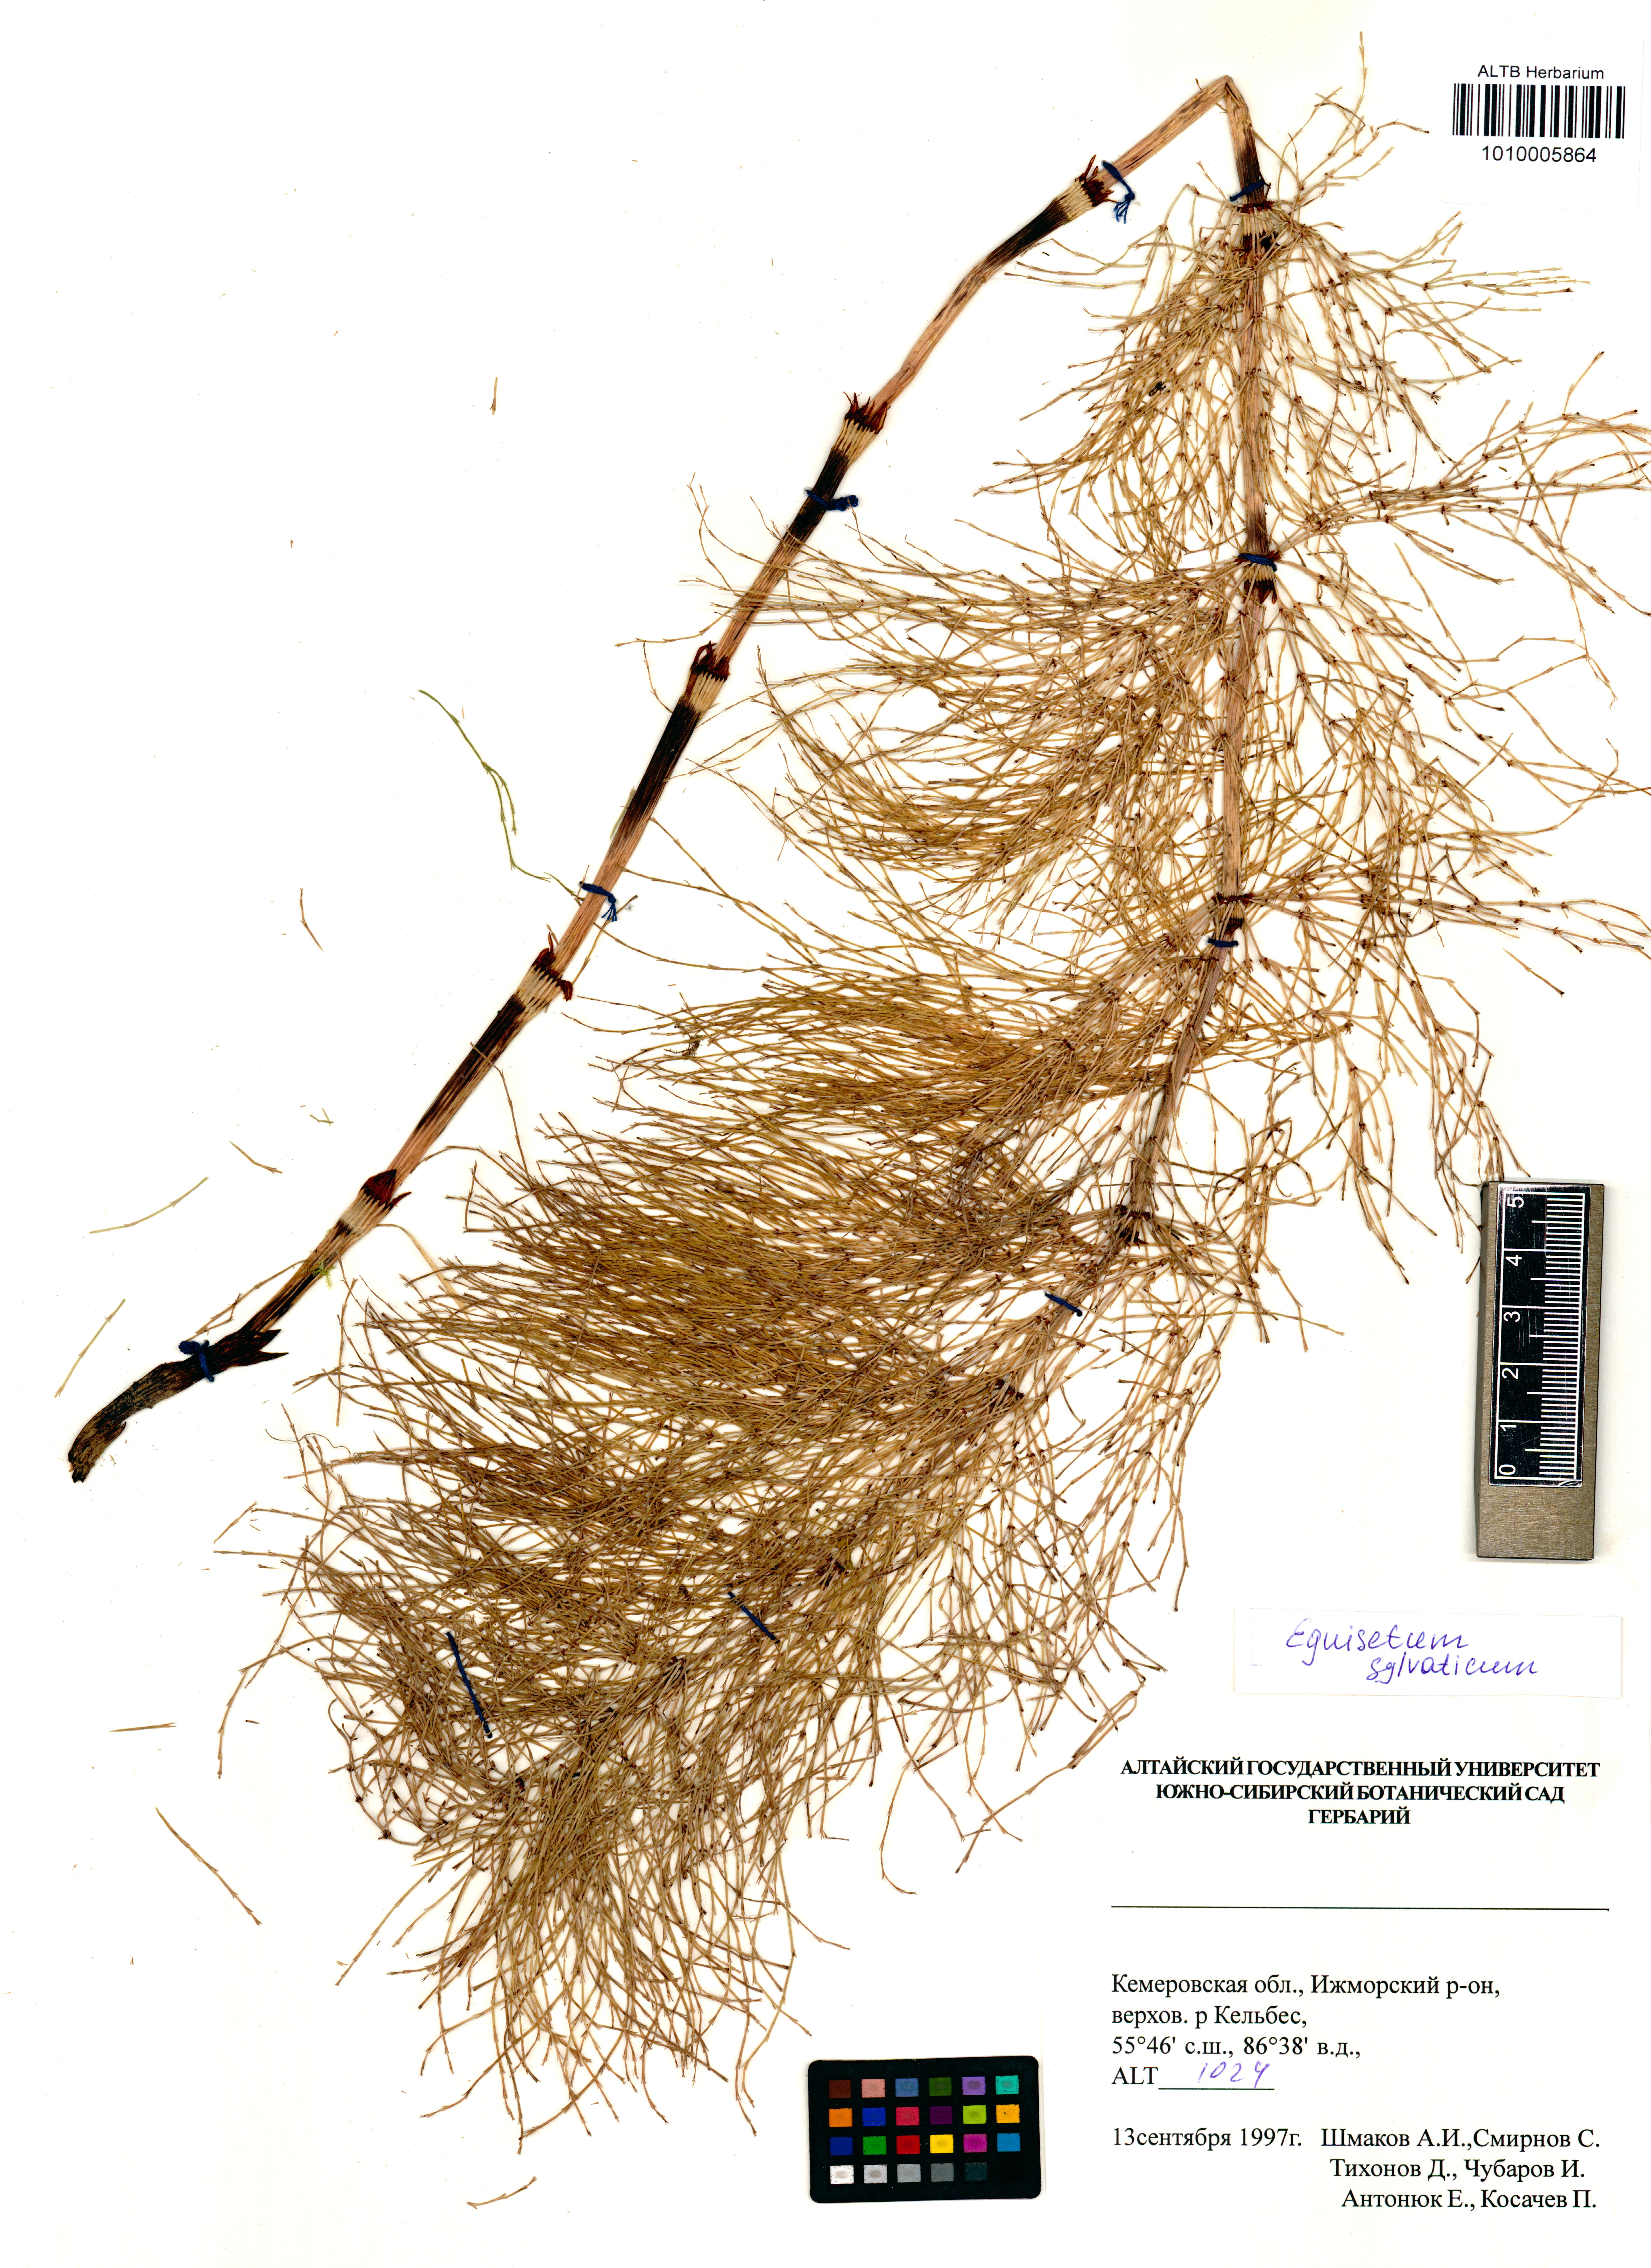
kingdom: Plantae
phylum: Tracheophyta
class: Polypodiopsida
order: Equisetales
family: Equisetaceae
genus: Equisetum
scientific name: Equisetum sylvaticum
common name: Wood horsetail
